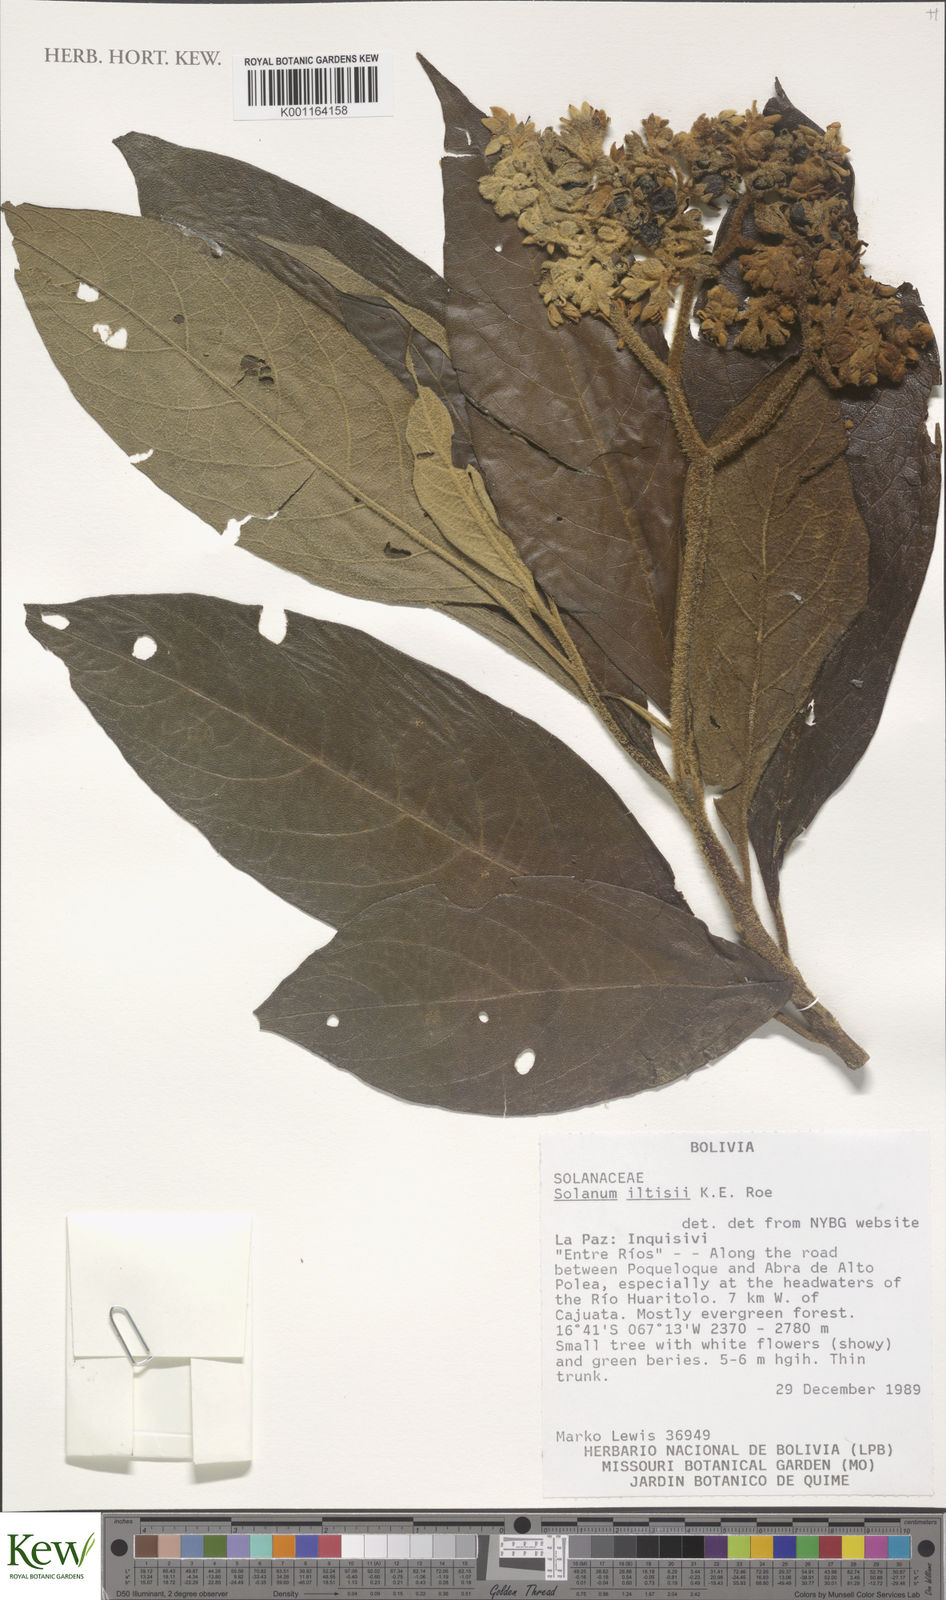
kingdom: Plantae
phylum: Tracheophyta
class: Magnoliopsida
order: Solanales
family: Solanaceae
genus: Solanum
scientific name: Solanum iltisii
